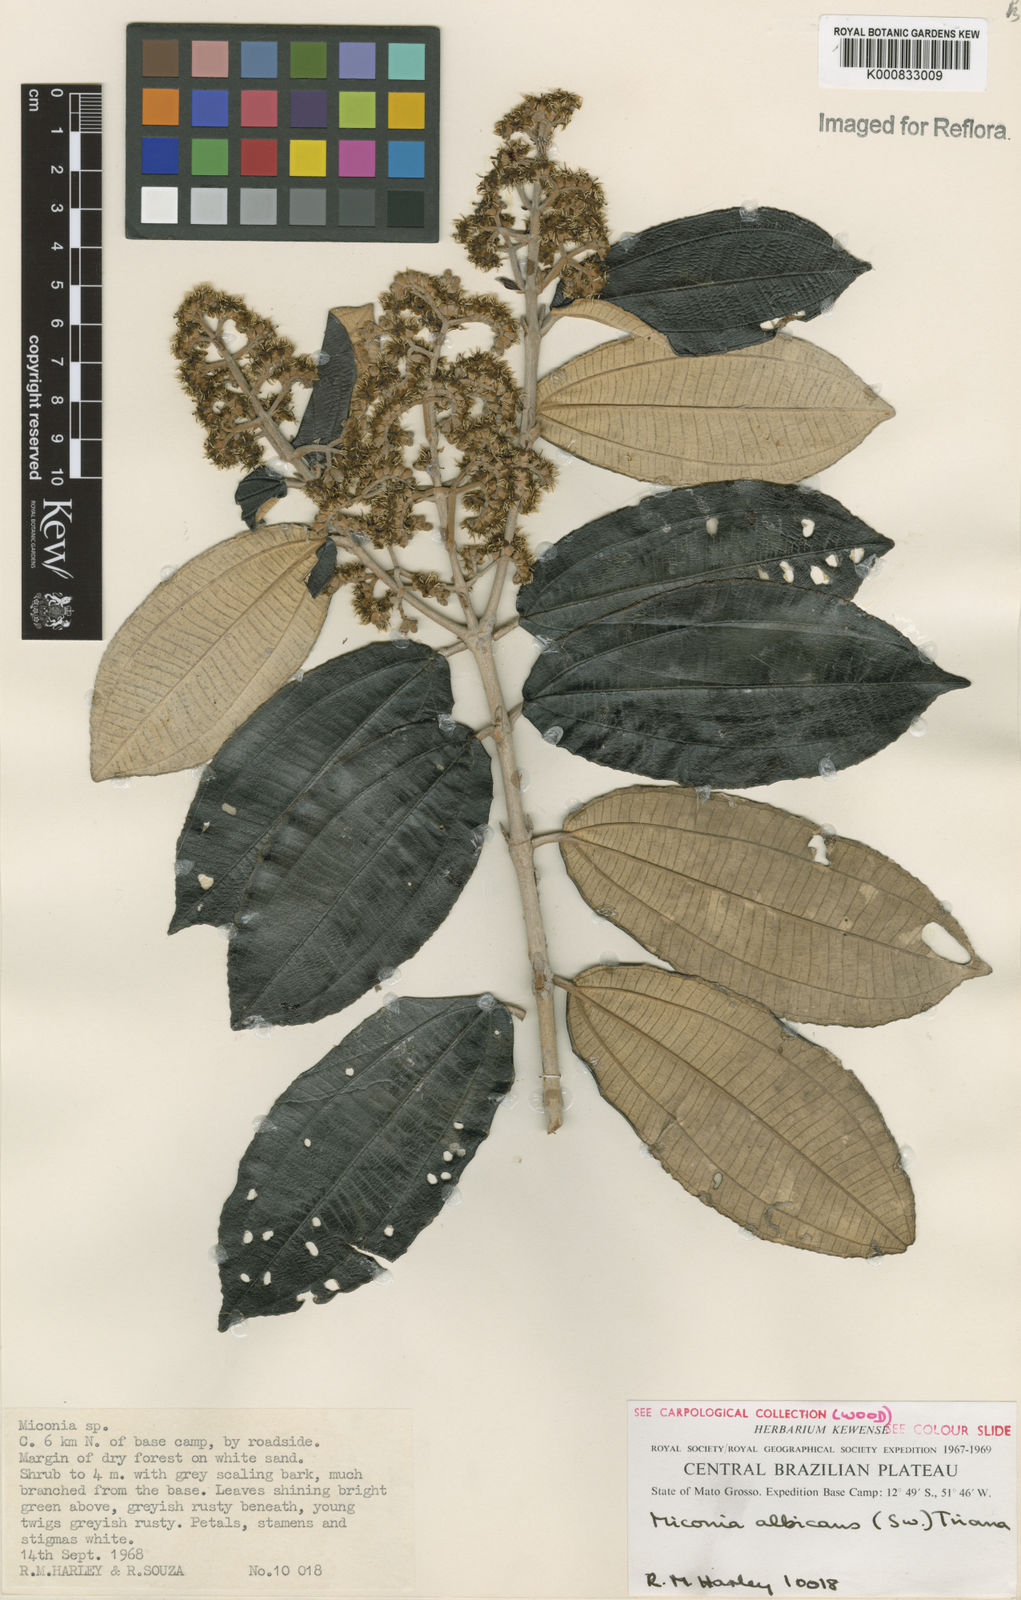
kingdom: Plantae
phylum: Tracheophyta
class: Magnoliopsida
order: Myrtales
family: Melastomataceae
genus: Miconia
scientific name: Miconia albicans
